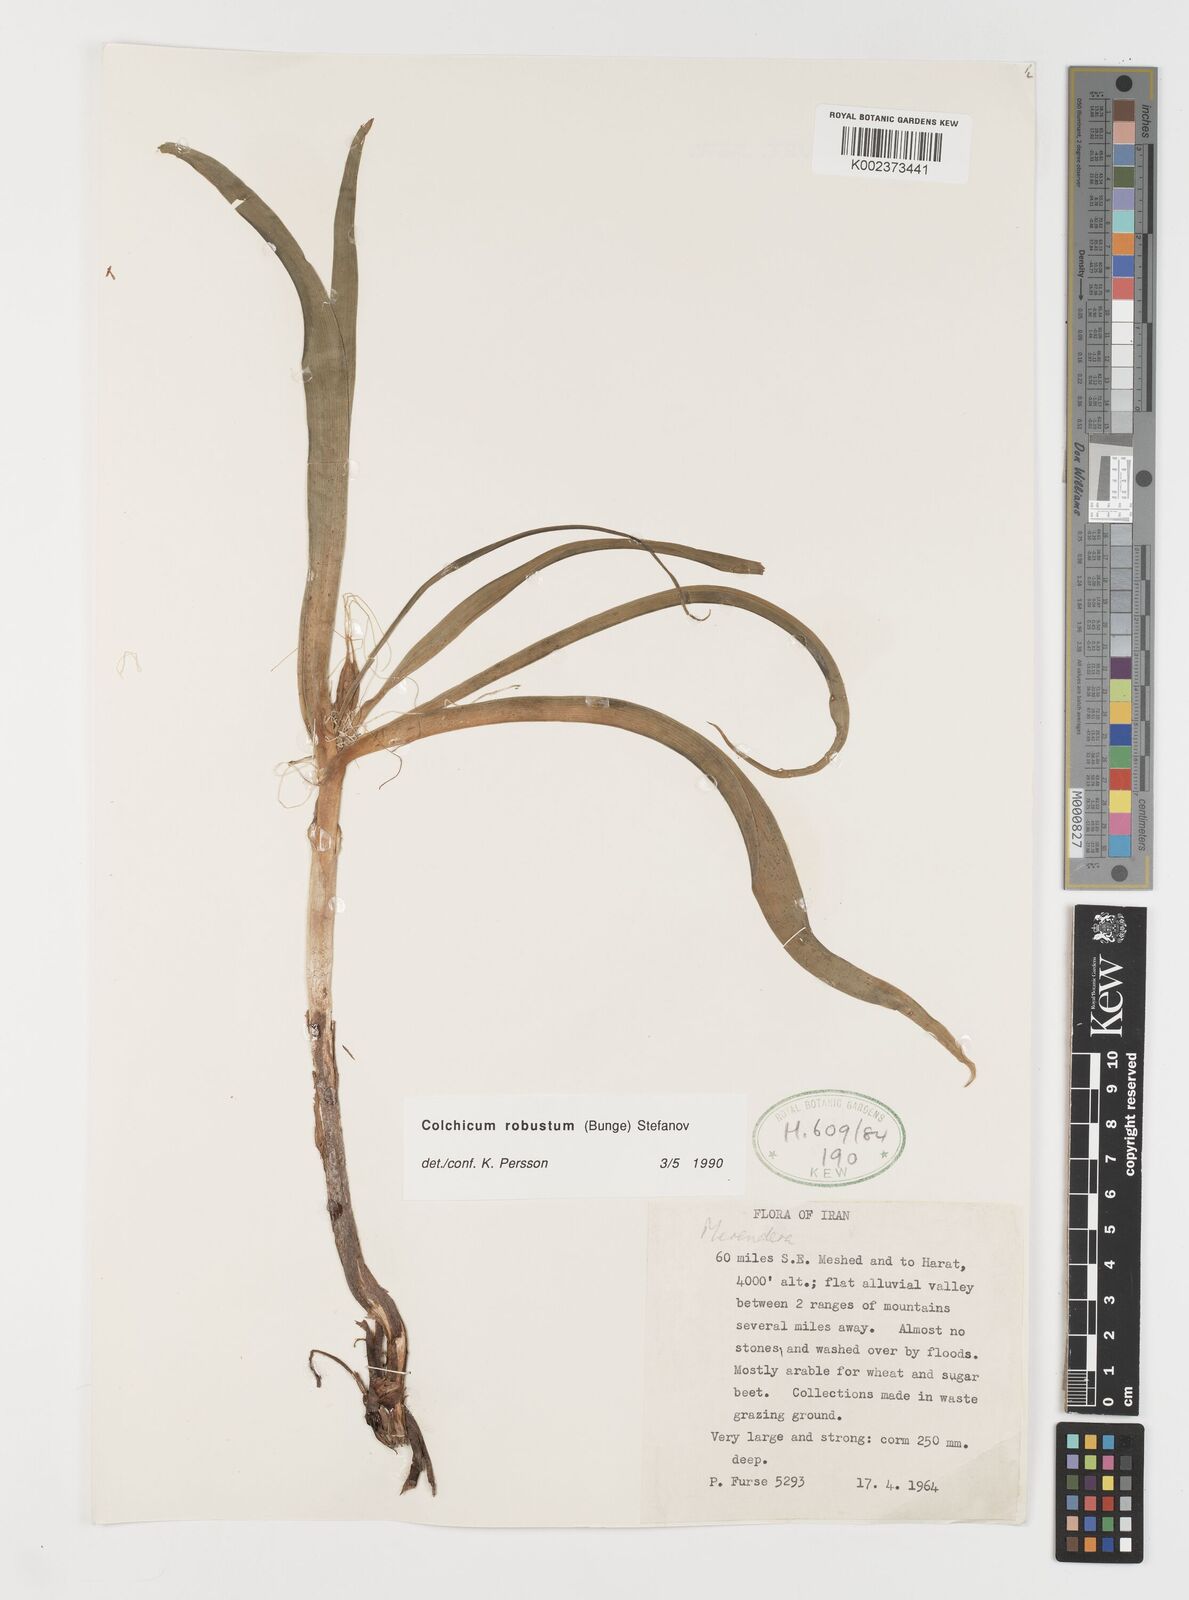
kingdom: Plantae
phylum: Tracheophyta
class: Liliopsida
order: Liliales
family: Colchicaceae
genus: Colchicum
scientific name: Colchicum robustum
